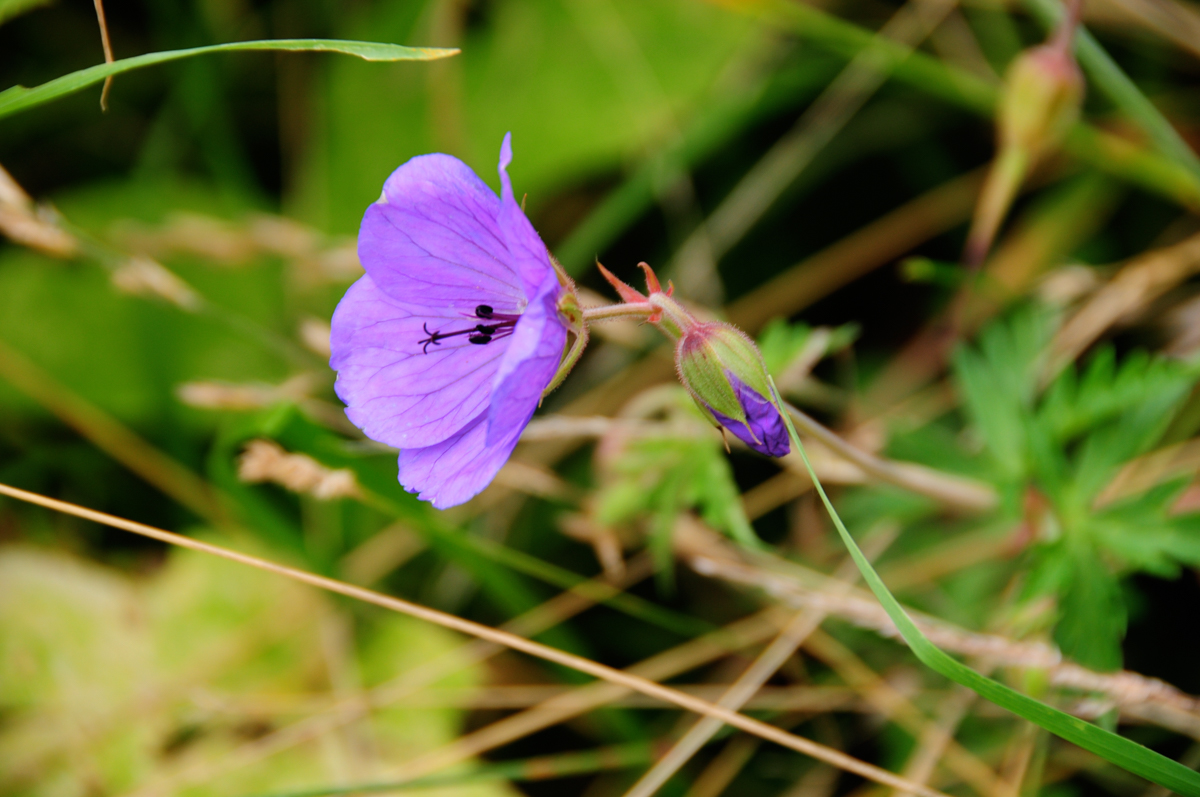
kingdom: Plantae
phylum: Tracheophyta
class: Magnoliopsida
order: Geraniales
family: Geraniaceae
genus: Geranium
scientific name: Geranium ibericum
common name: Caucasian crane's-bill
